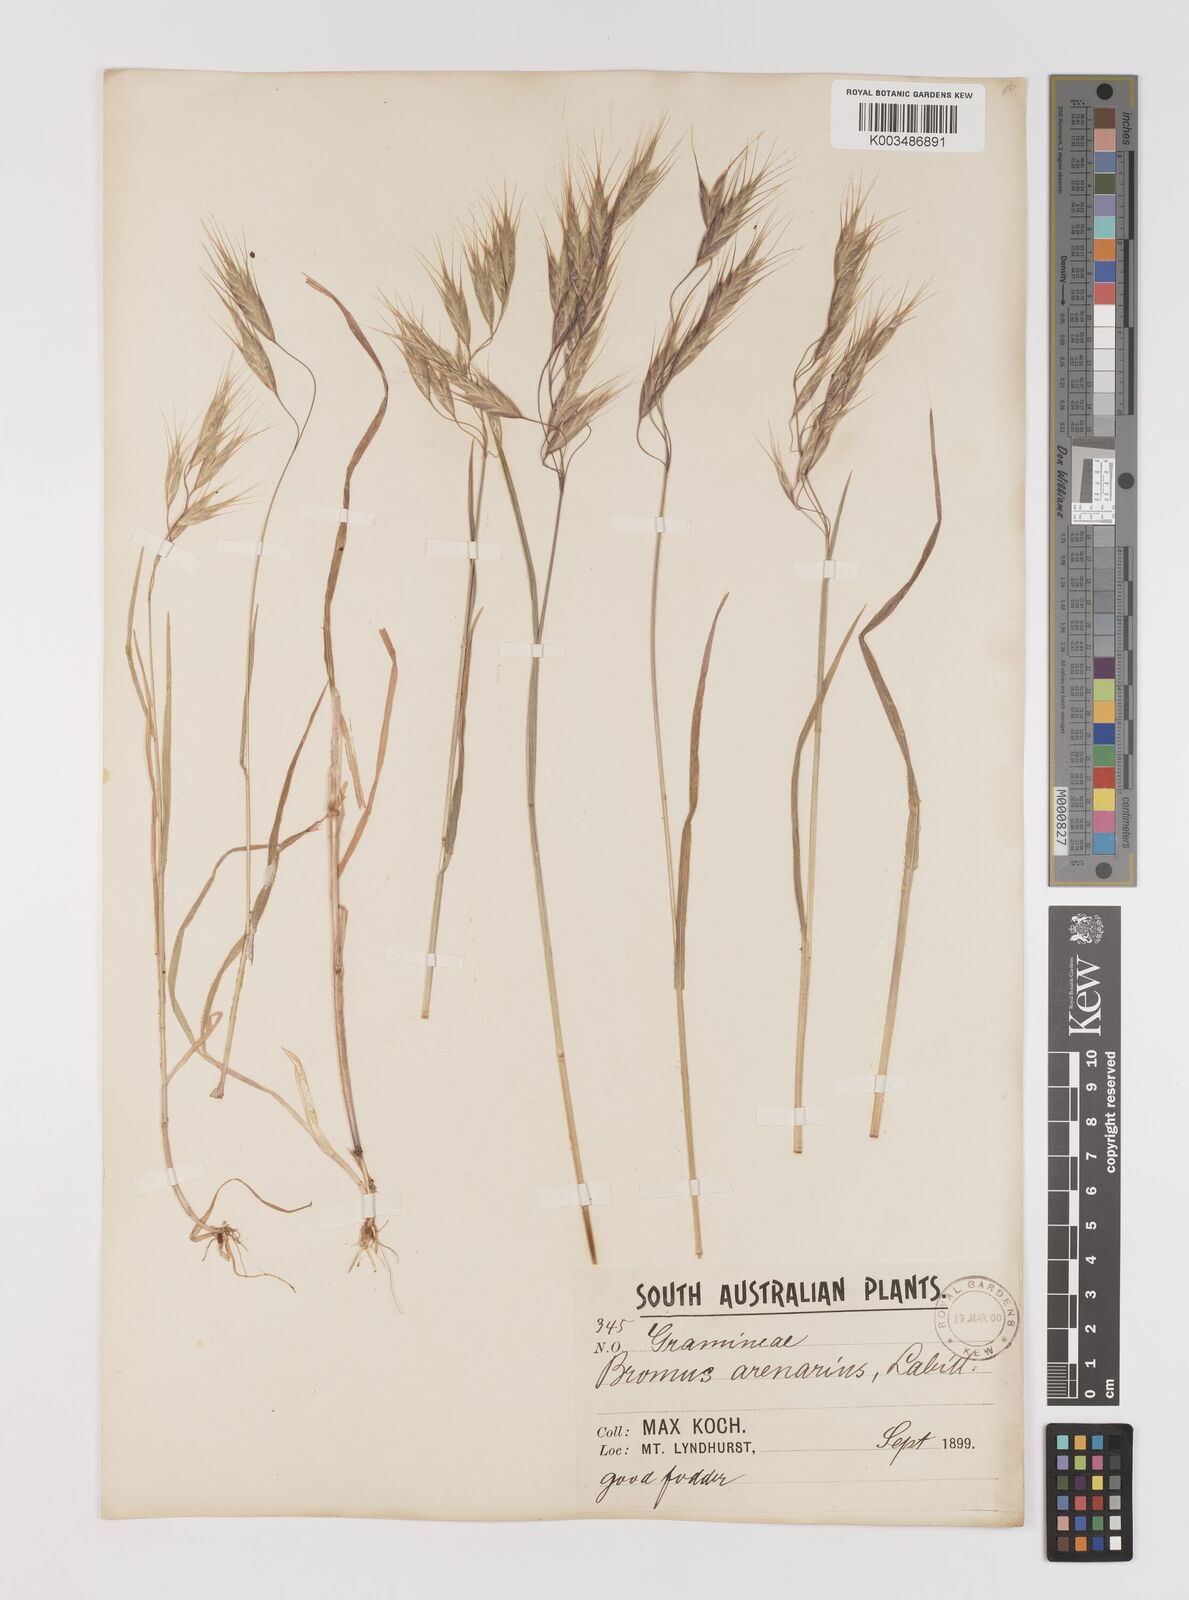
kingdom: Plantae
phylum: Tracheophyta
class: Liliopsida
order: Poales
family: Poaceae
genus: Bromus
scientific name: Bromus arenarius
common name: Australian brome
